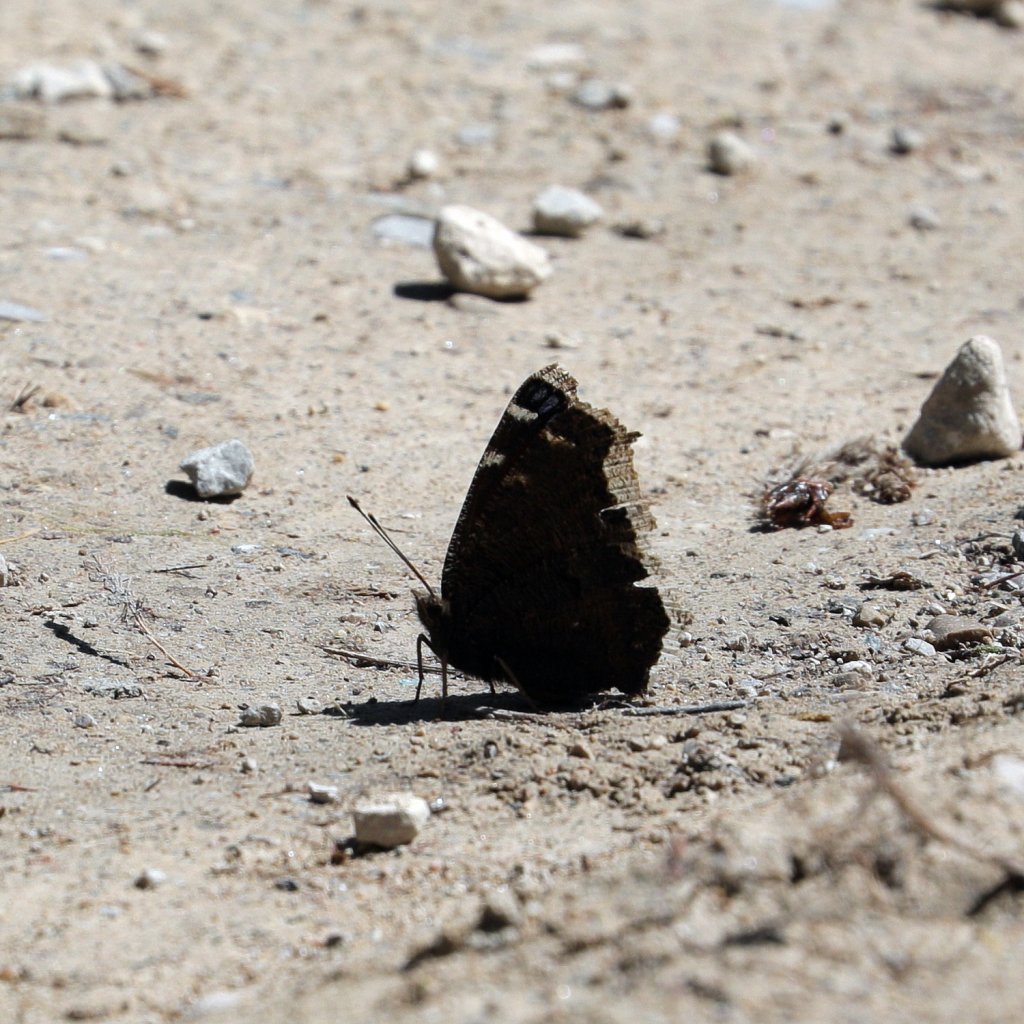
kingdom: Animalia
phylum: Arthropoda
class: Insecta
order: Lepidoptera
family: Nymphalidae
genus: Nymphalis
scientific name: Nymphalis antiopa
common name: Mourning Cloak
